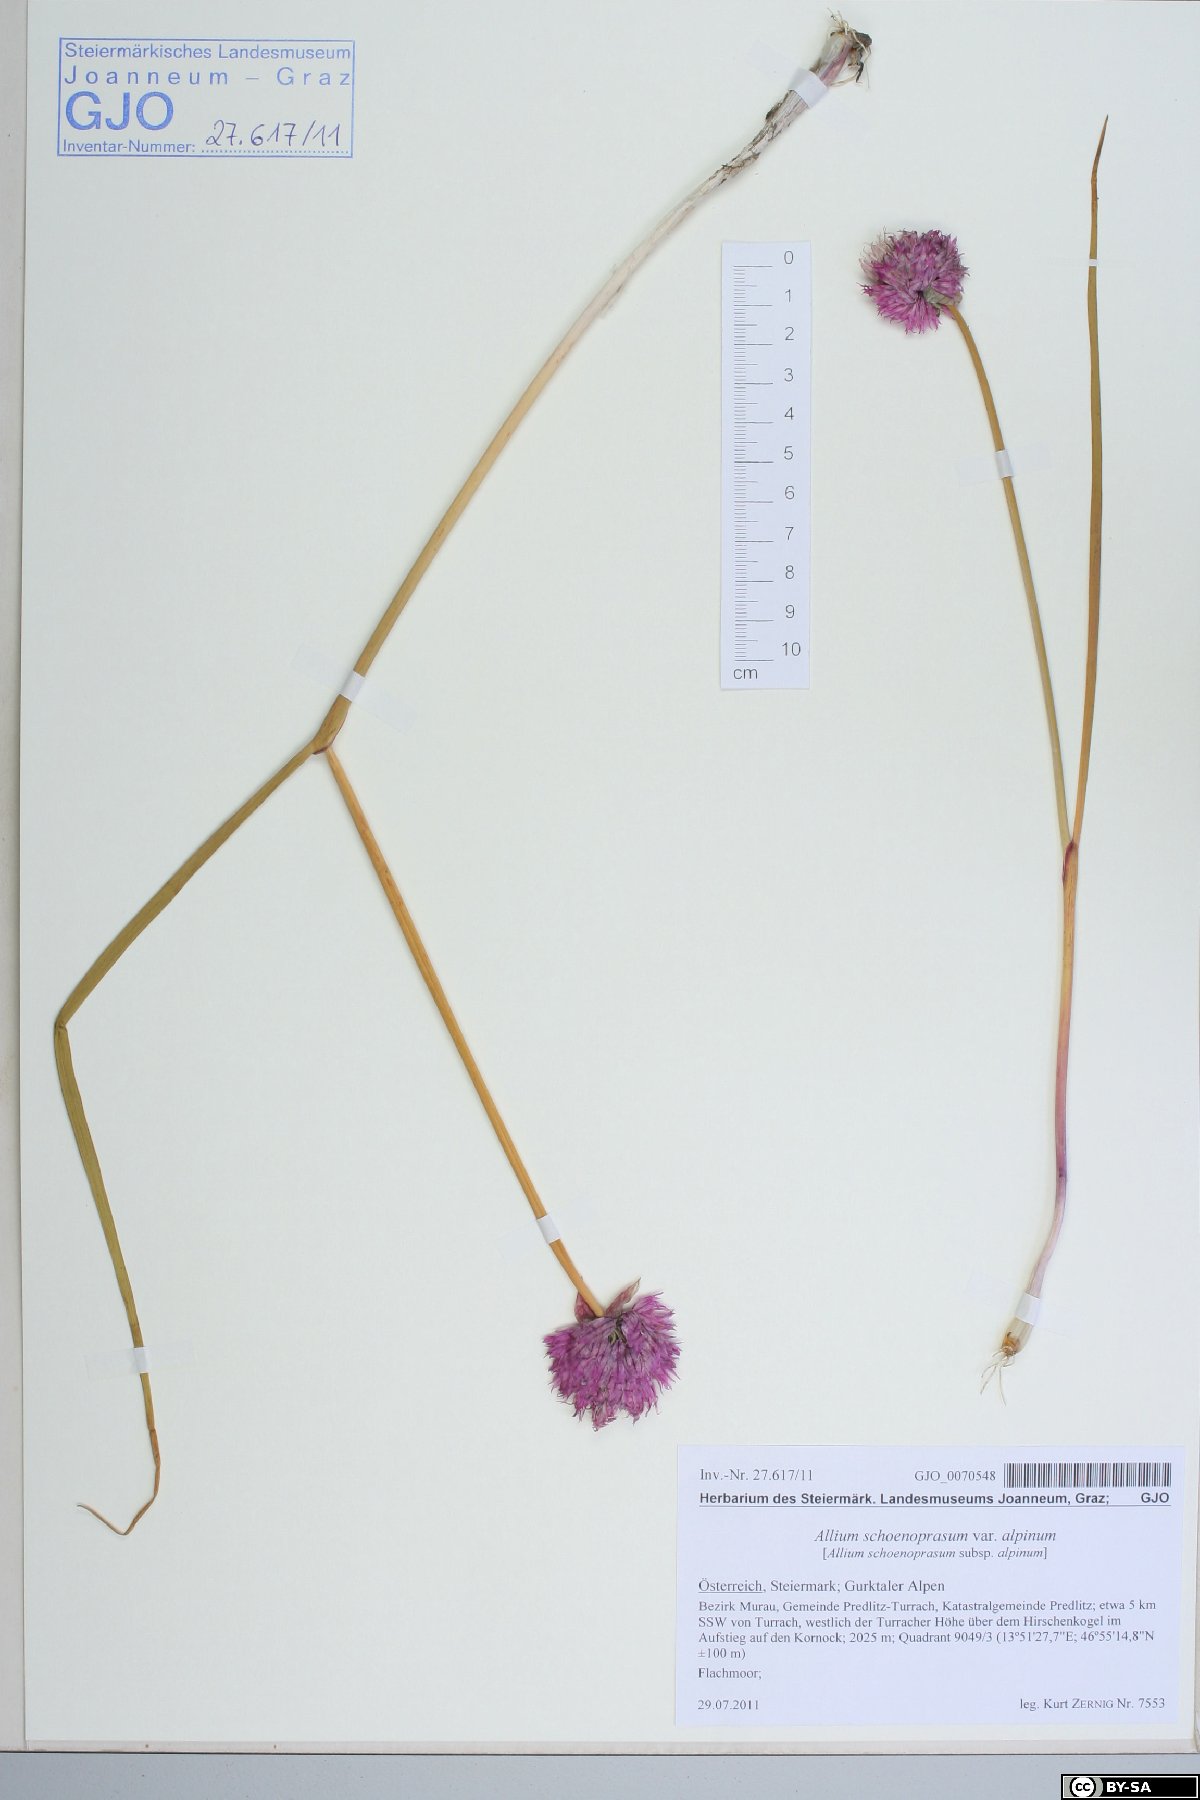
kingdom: Plantae
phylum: Tracheophyta
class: Liliopsida
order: Asparagales
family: Amaryllidaceae
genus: Allium
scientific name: Allium schoenoprasum
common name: Chives
